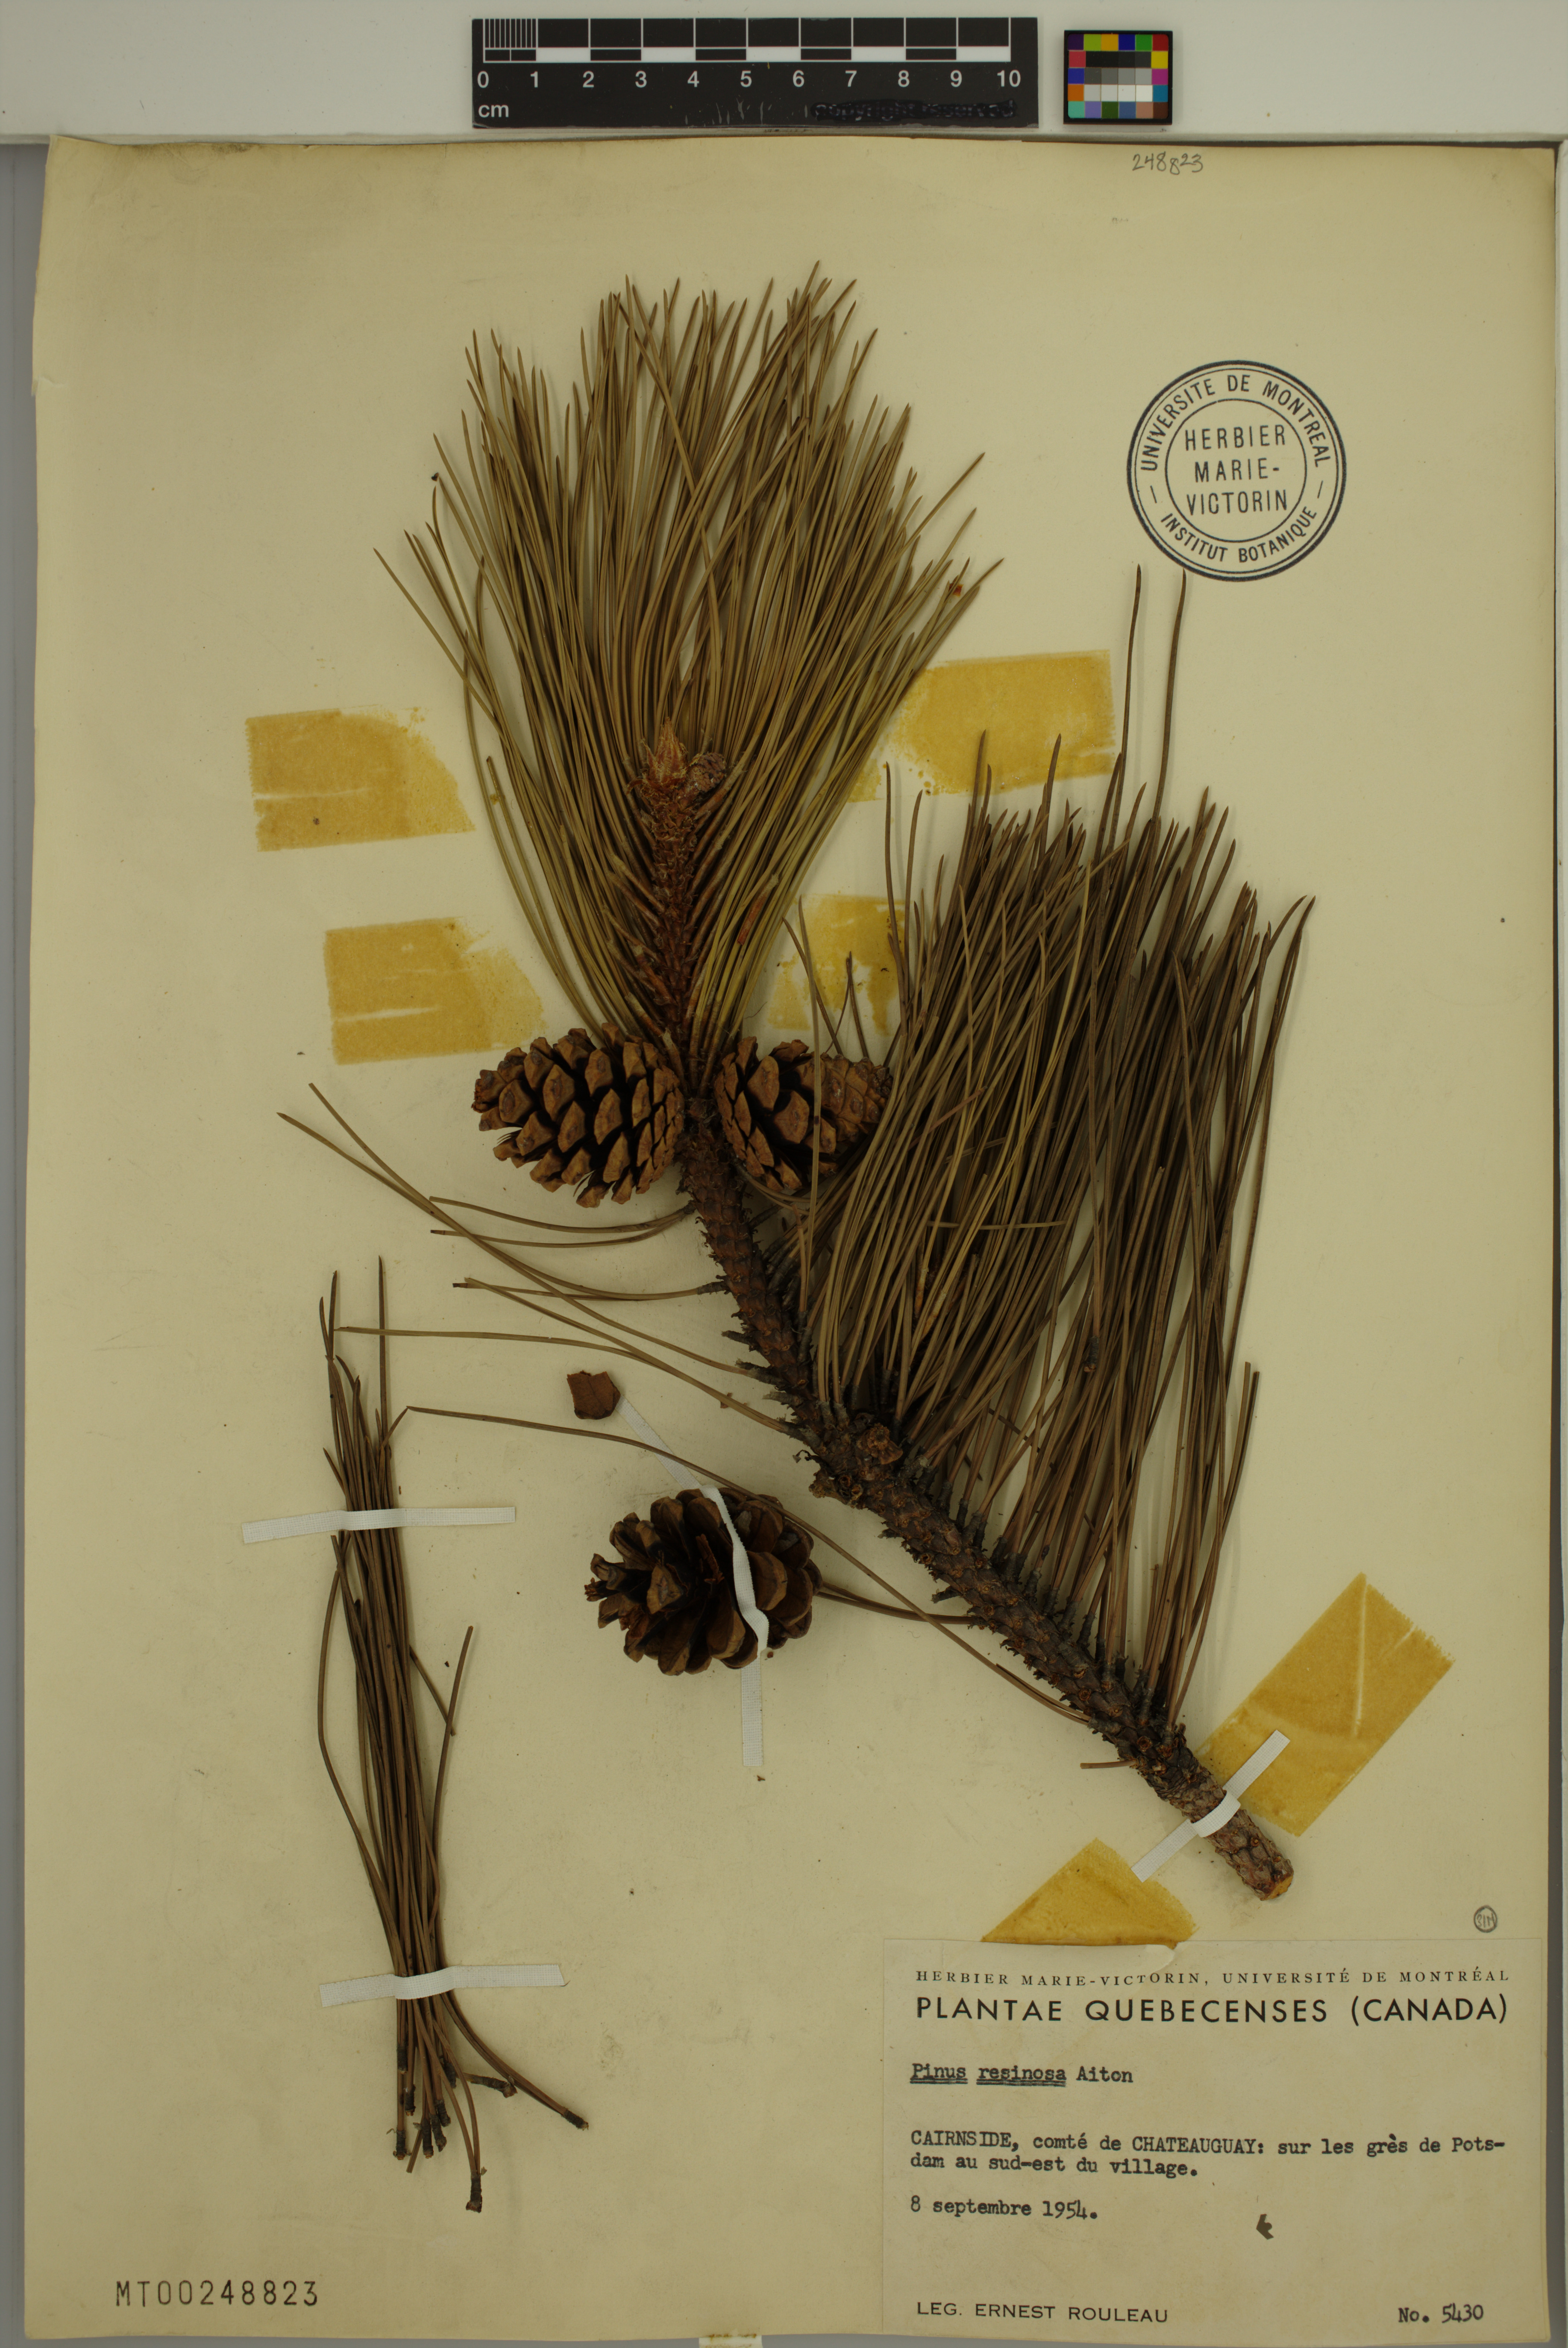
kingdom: Plantae
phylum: Tracheophyta
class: Pinopsida
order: Pinales
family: Pinaceae
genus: Pinus
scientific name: Pinus resinosa
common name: Norway pine
